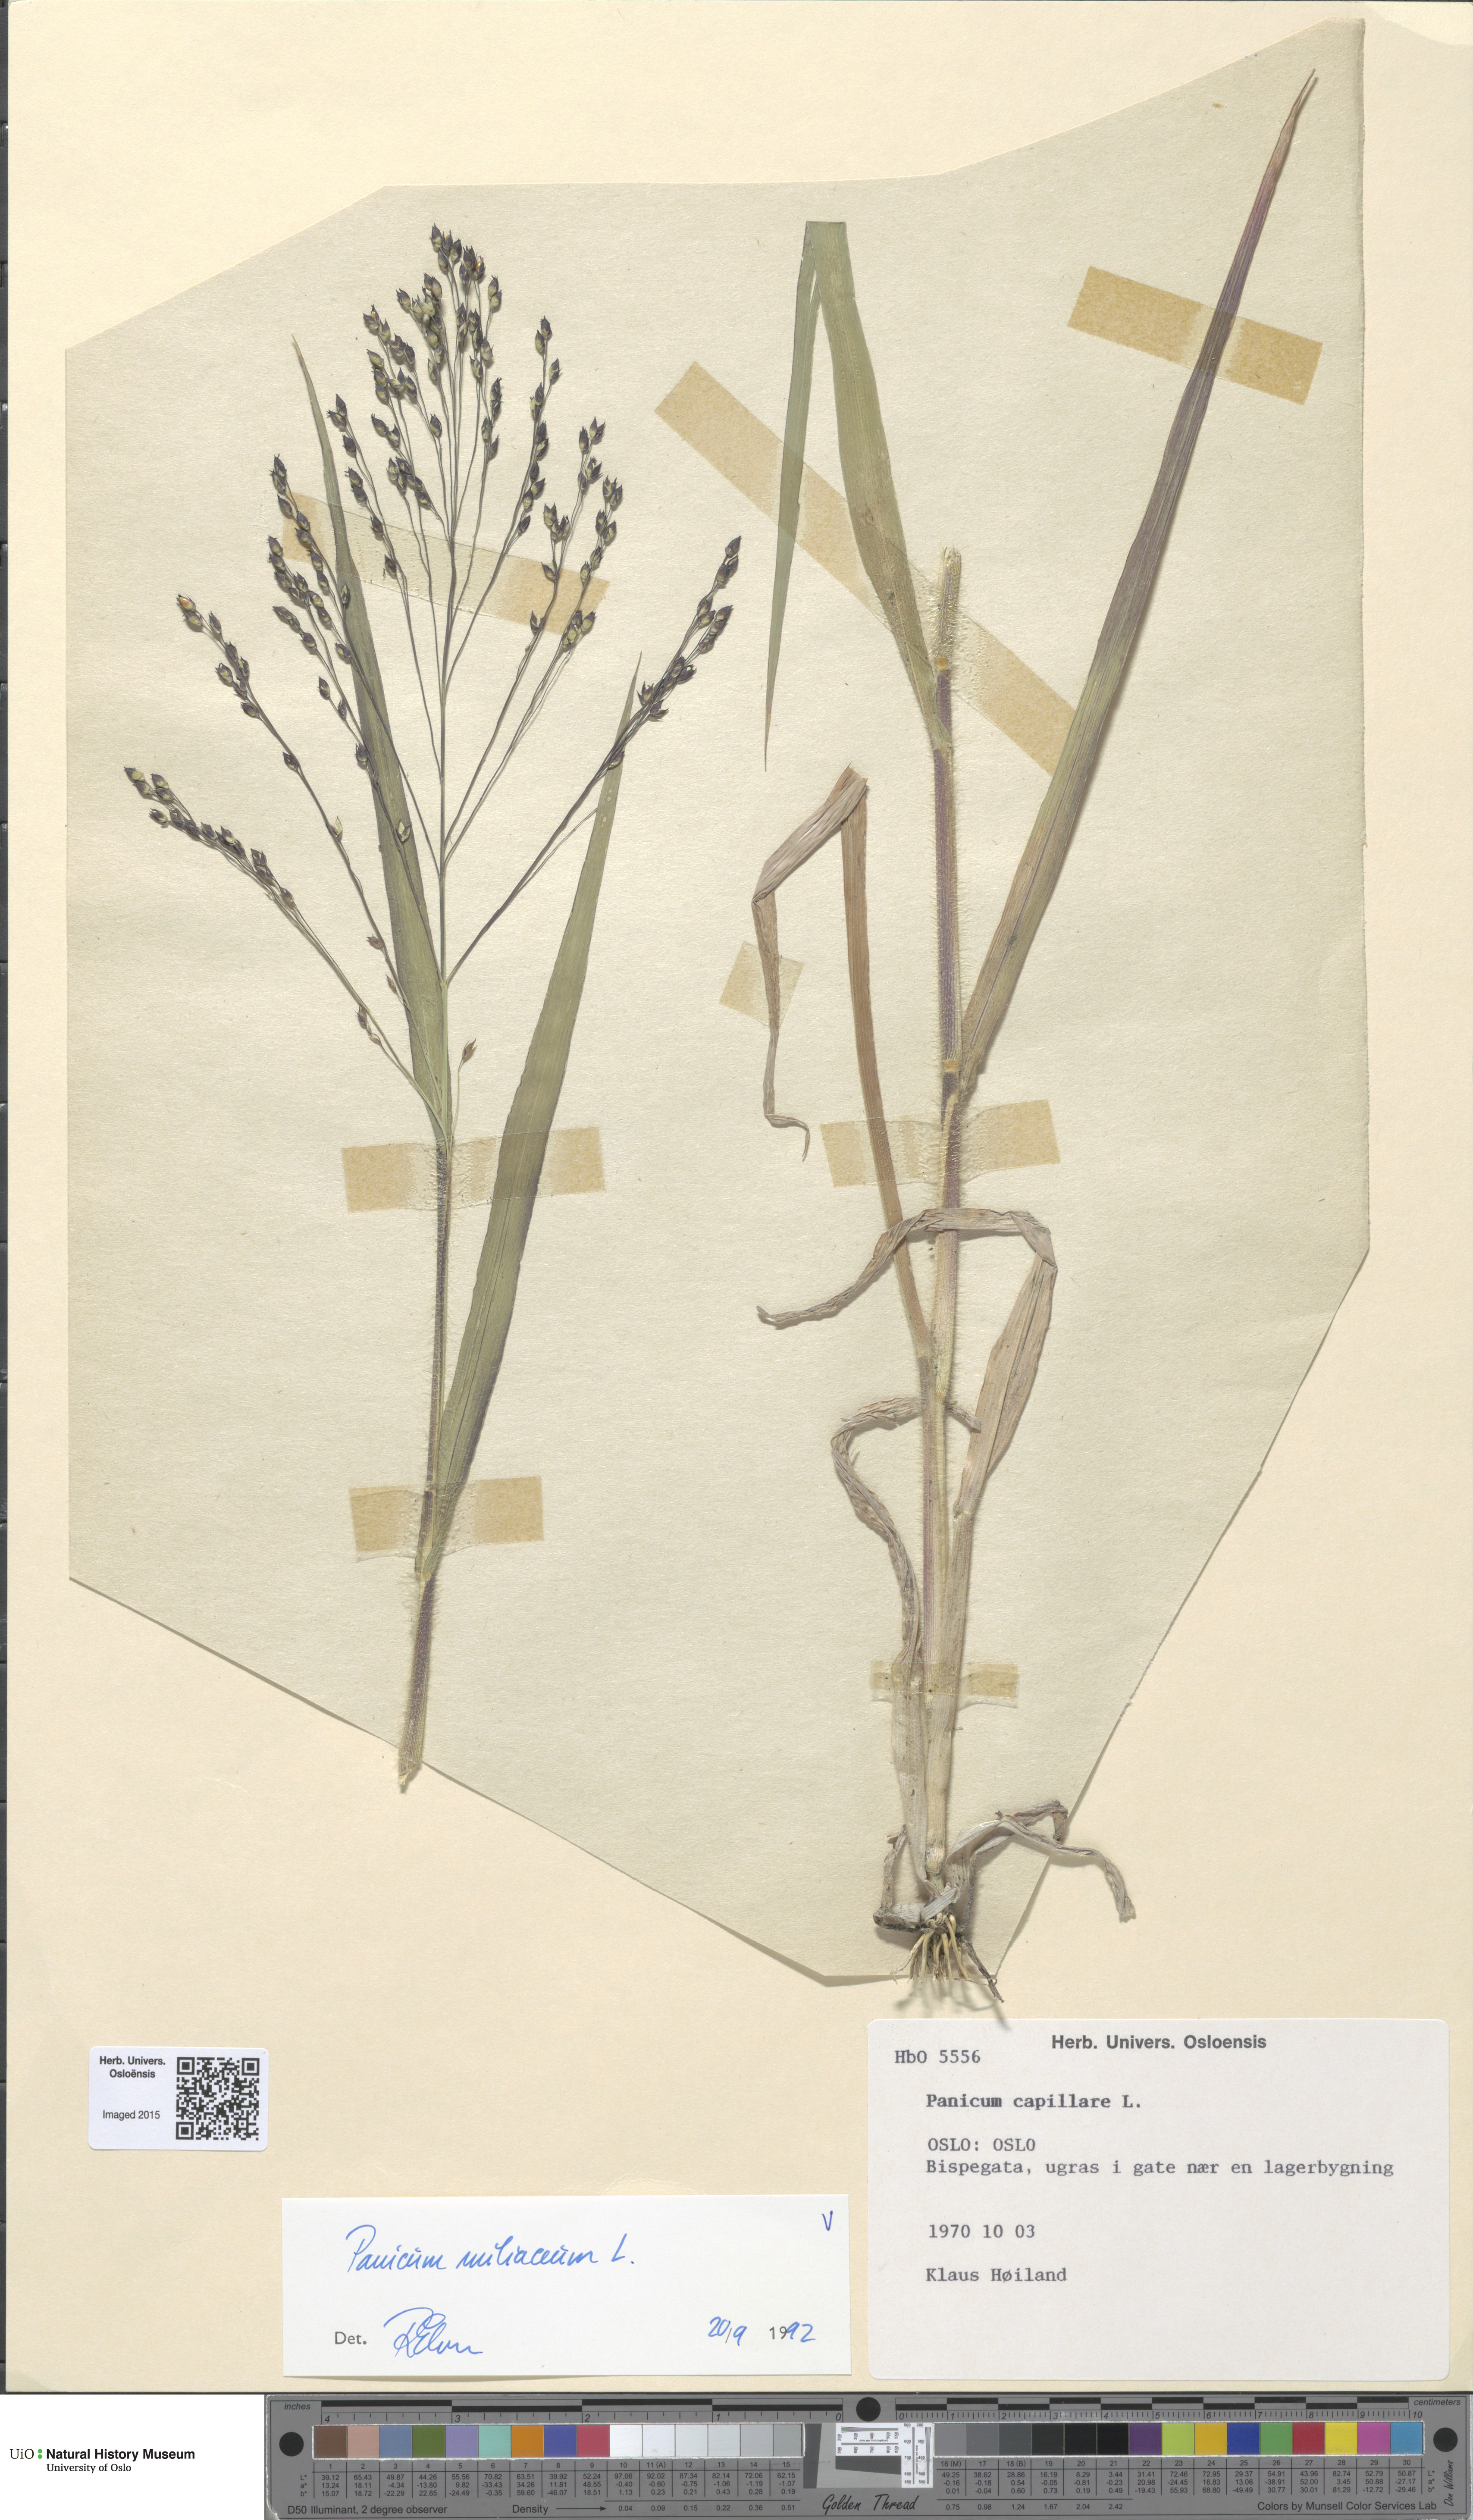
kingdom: Plantae
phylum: Tracheophyta
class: Liliopsida
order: Poales
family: Poaceae
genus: Panicum
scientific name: Panicum miliaceum
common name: Common millet
